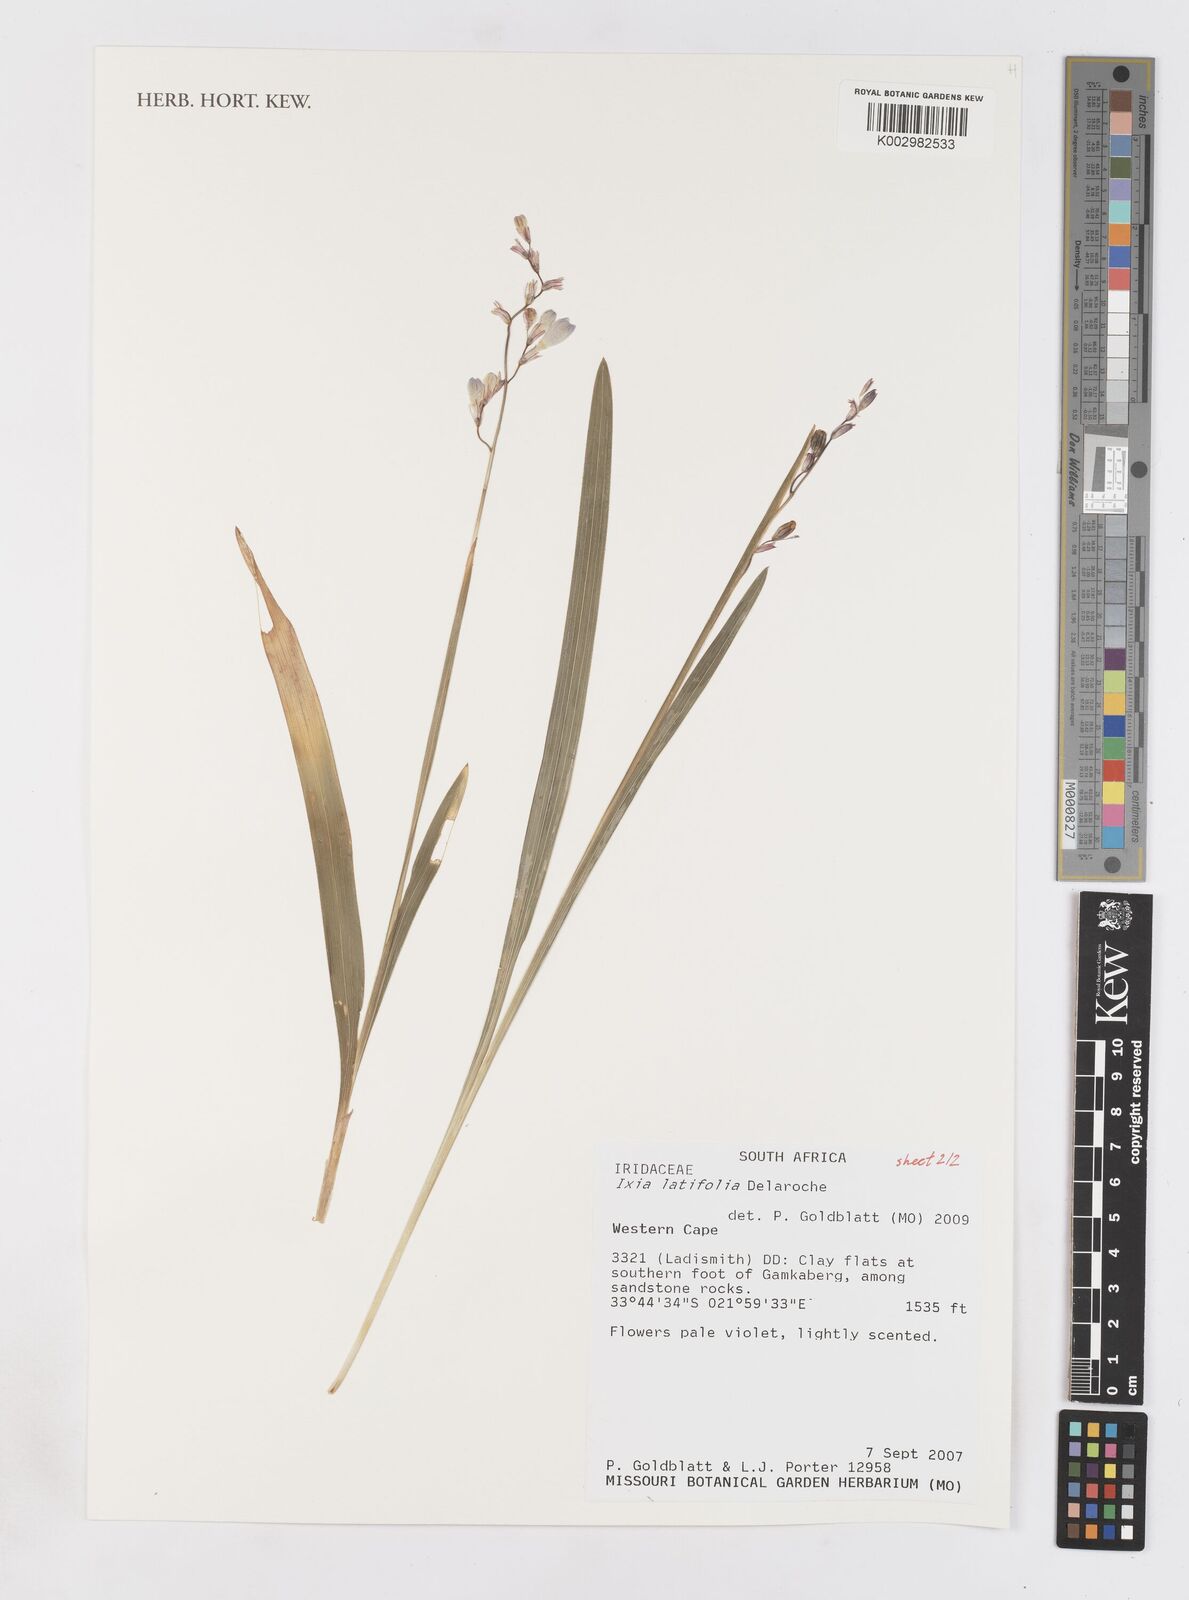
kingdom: Plantae
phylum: Tracheophyta
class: Liliopsida
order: Asparagales
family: Iridaceae
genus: Ixia
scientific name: Ixia latifolia
